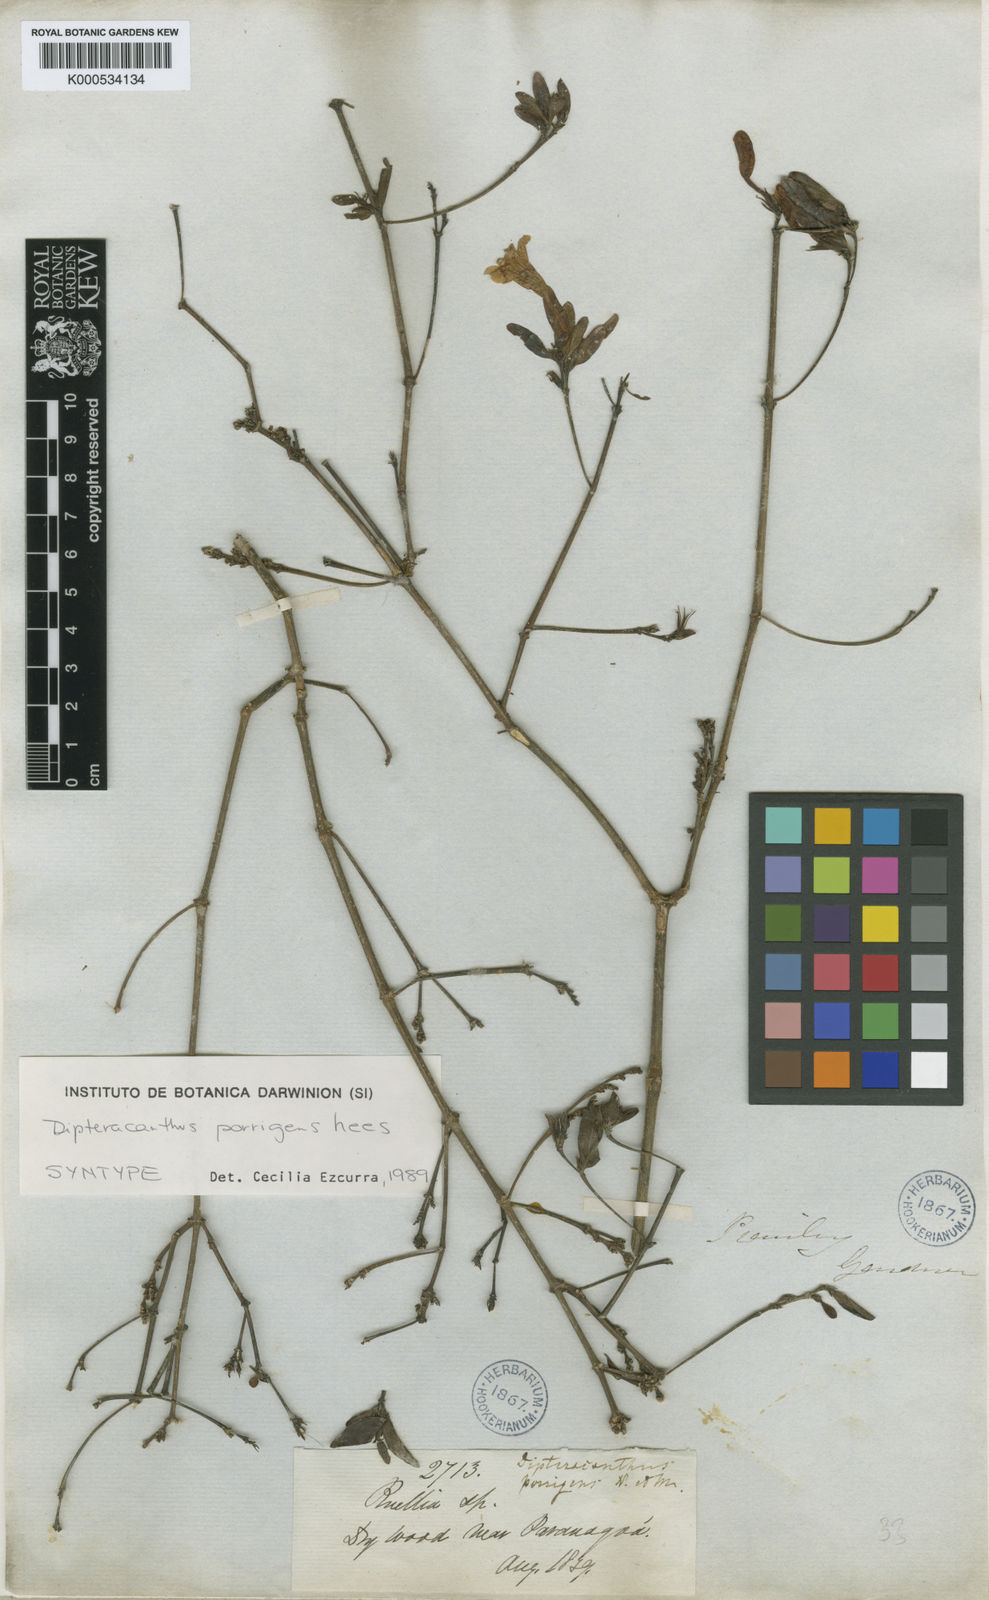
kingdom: Plantae
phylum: Tracheophyta
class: Magnoliopsida
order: Lamiales
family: Acanthaceae
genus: Ruellia
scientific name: Ruellia geminiflora
